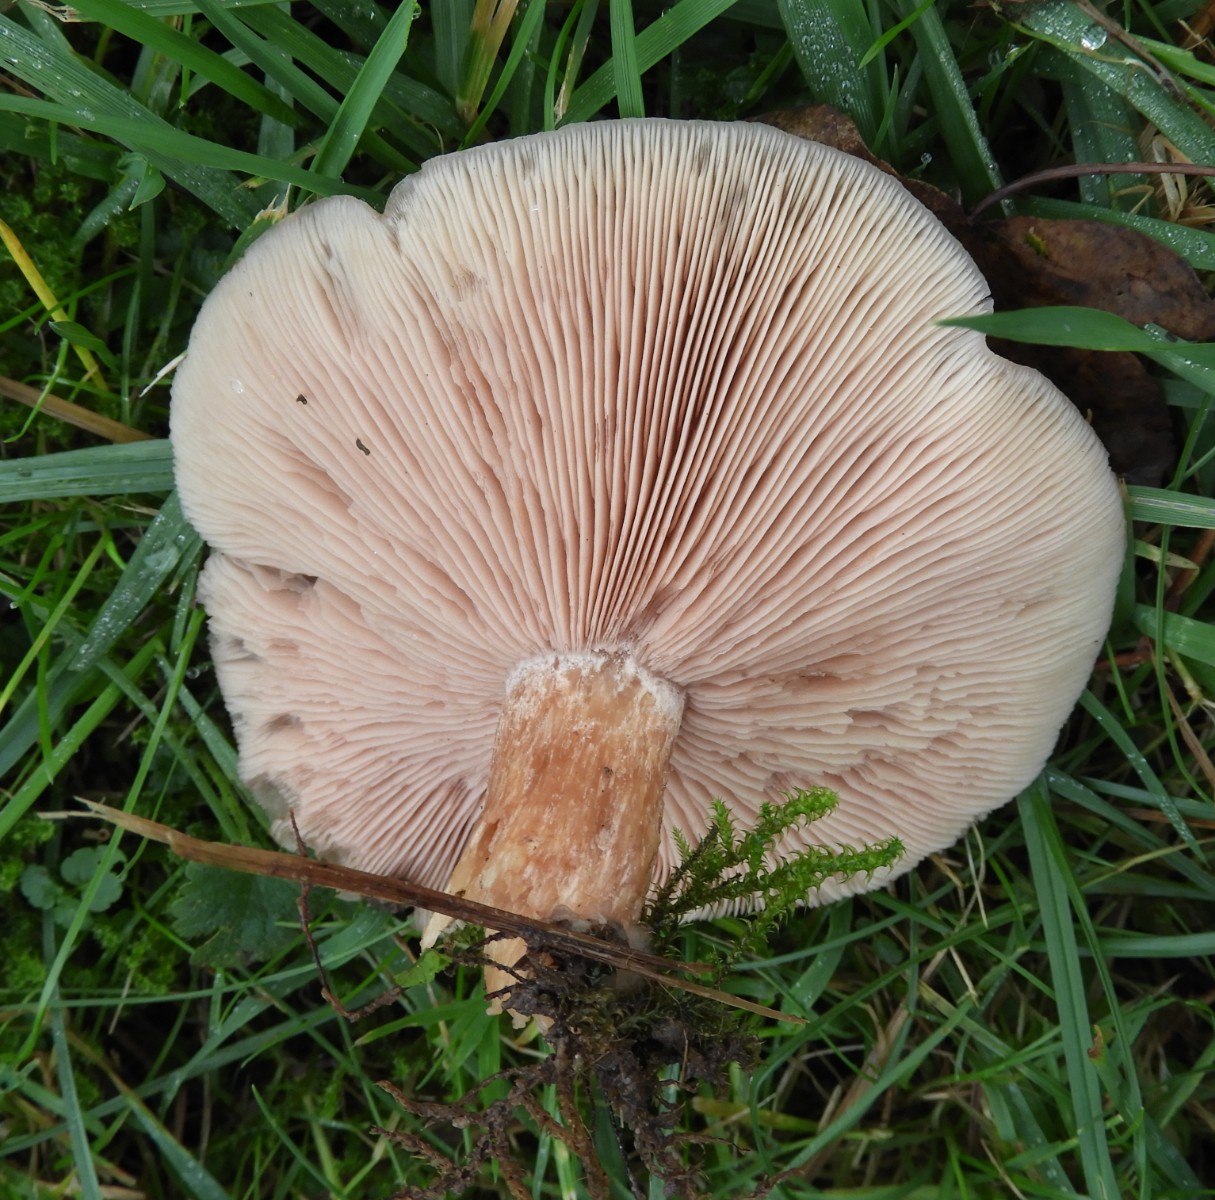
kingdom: Fungi
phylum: Basidiomycota
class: Agaricomycetes
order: Agaricales
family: Tricholomataceae
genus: Lepista
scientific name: Lepista personata
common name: bleg hekseringshat
